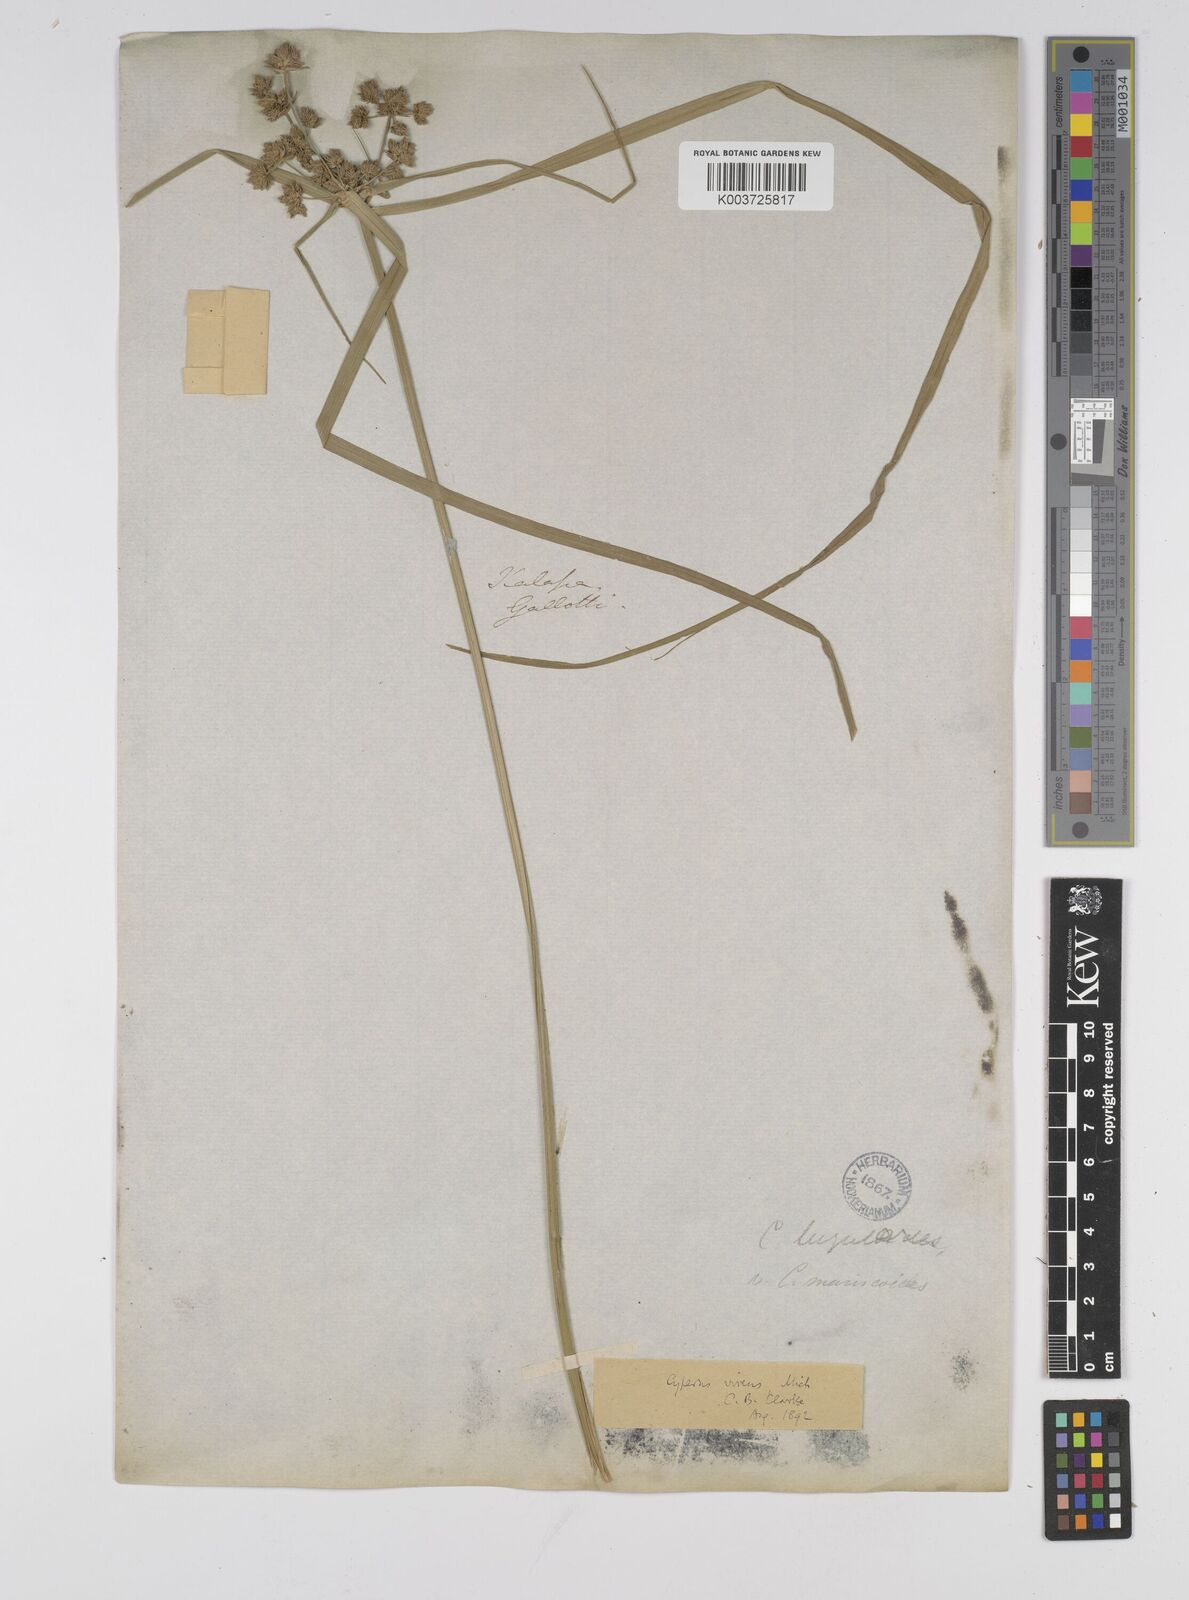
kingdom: Plantae
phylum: Tracheophyta
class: Liliopsida
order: Poales
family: Cyperaceae
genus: Cyperus
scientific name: Cyperus virens
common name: Green flatsedge
